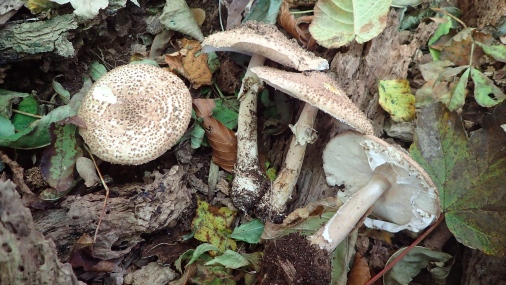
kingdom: Fungi
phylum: Basidiomycota
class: Agaricomycetes
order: Agaricales
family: Agaricaceae
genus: Echinoderma
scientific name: Echinoderma asperum
